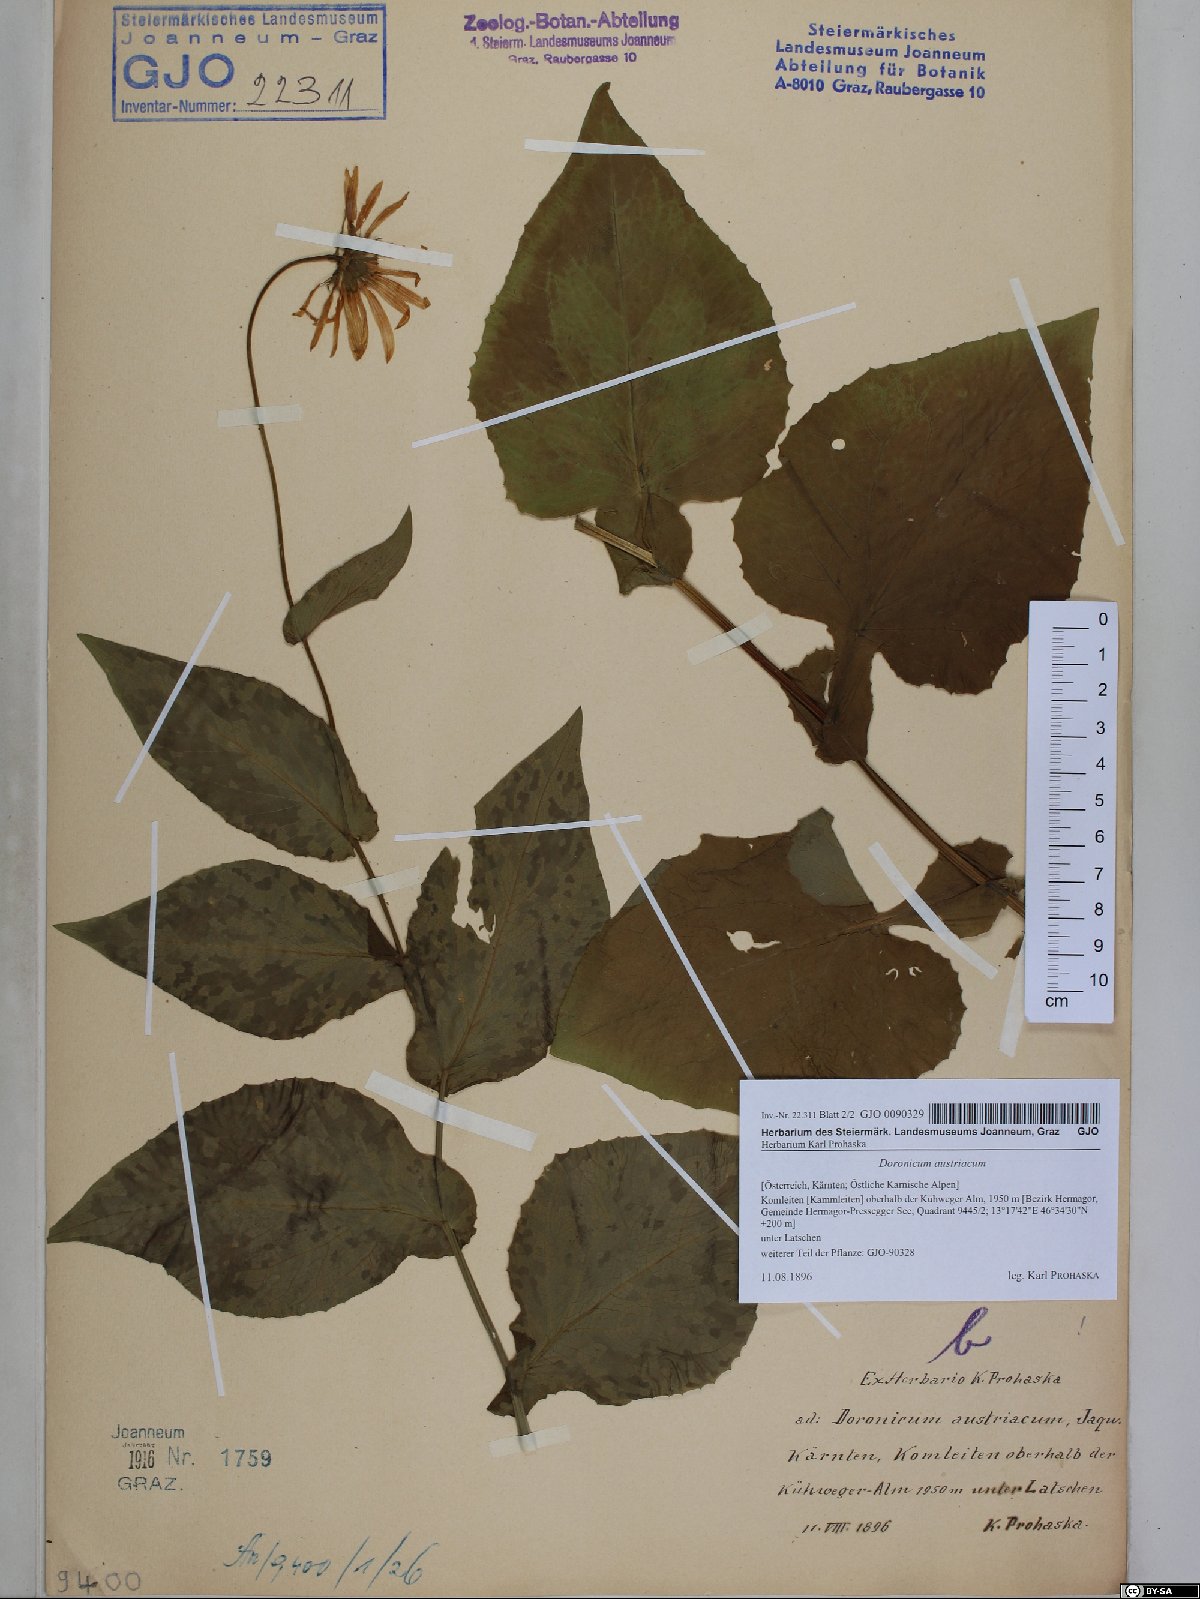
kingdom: Plantae
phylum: Tracheophyta
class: Magnoliopsida
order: Asterales
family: Asteraceae
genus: Doronicum
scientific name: Doronicum austriacum
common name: Austrian leopard's-bane
